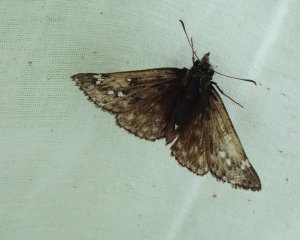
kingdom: Animalia
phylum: Arthropoda
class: Insecta
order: Lepidoptera
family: Hesperiidae
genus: Gesta
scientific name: Gesta
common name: Juvenal's Duskywing
